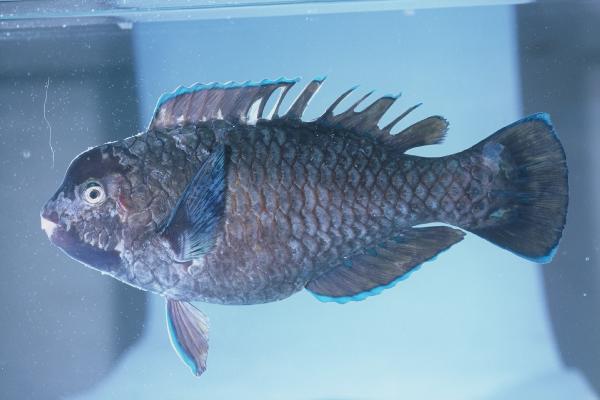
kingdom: Animalia
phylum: Chordata
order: Perciformes
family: Scaridae
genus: Chlorurus
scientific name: Chlorurus oedema
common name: Knothead parrotfish
